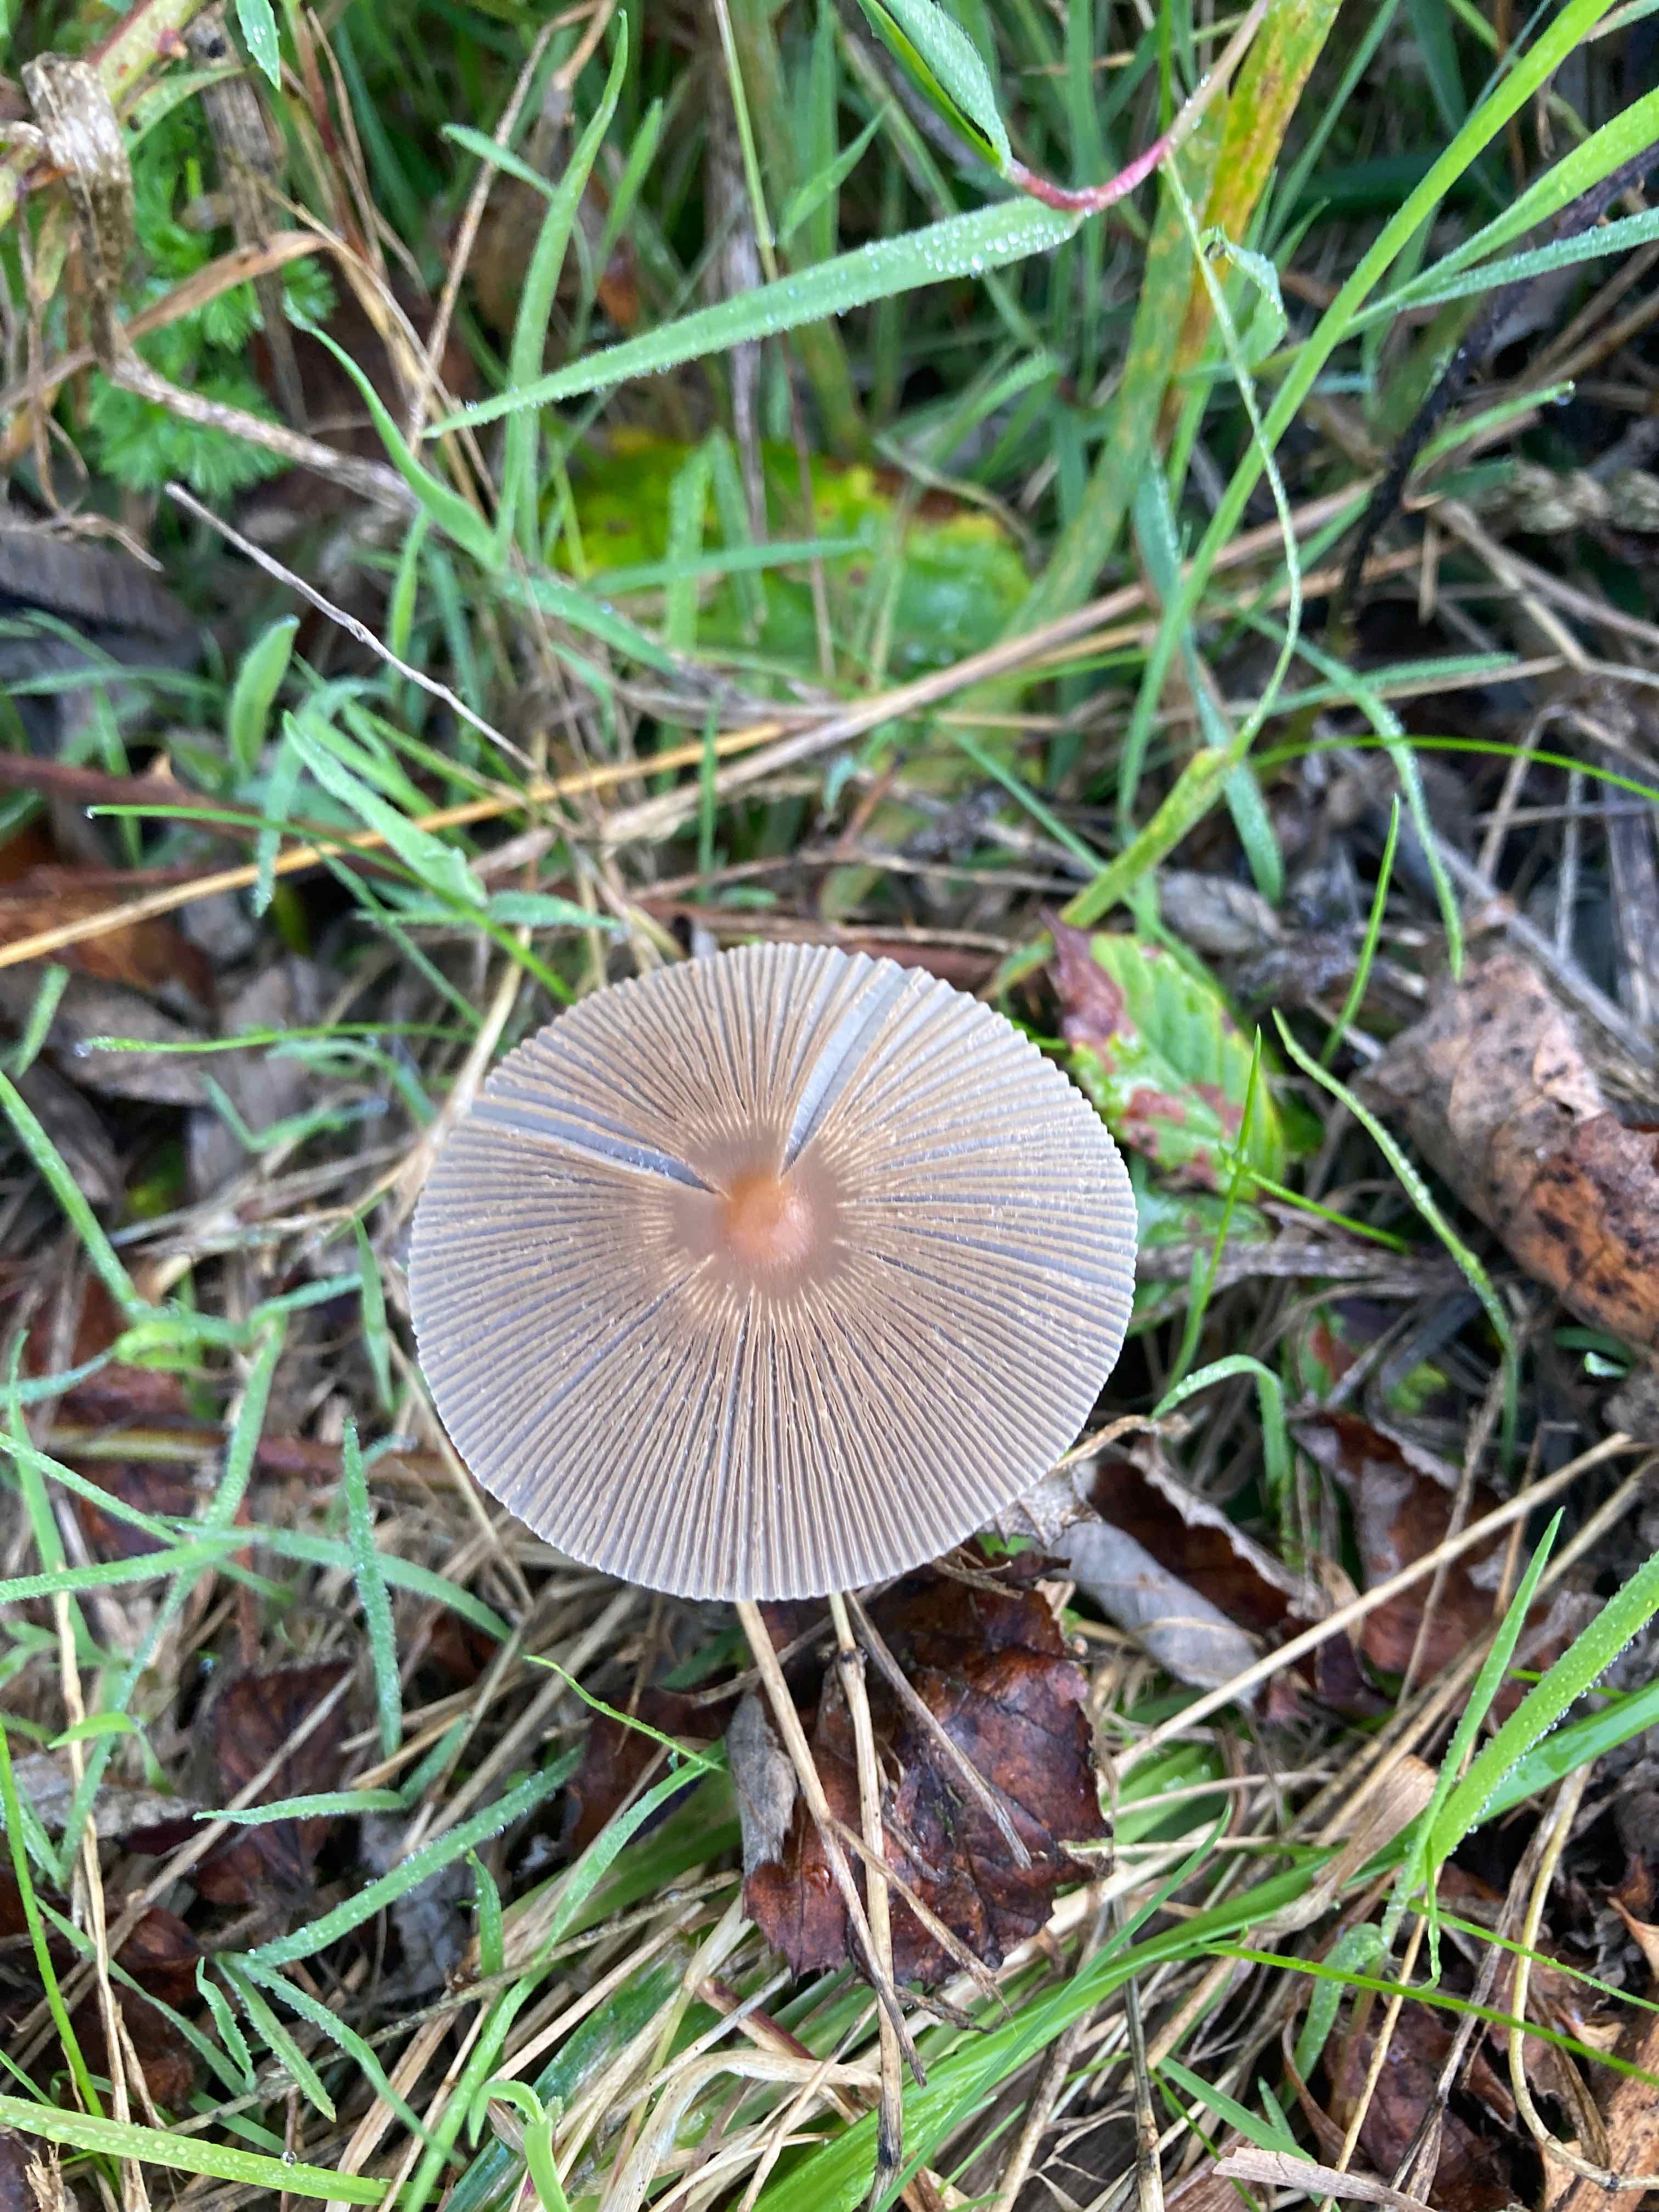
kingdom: Fungi
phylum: Basidiomycota
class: Agaricomycetes
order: Agaricales
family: Psathyrellaceae
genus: Parasola
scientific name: Parasola auricoma
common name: hansens hjulhat
